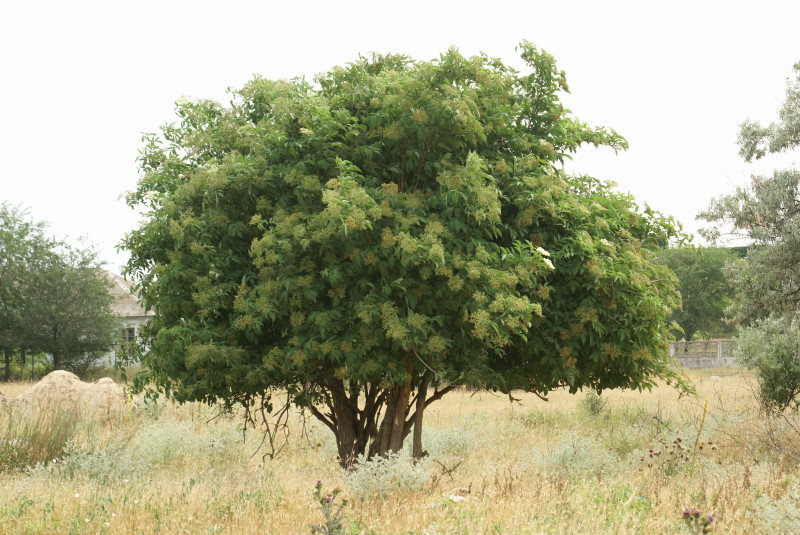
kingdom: Plantae
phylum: Tracheophyta
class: Magnoliopsida
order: Dipsacales
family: Viburnaceae
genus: Sambucus
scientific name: Sambucus nigra
